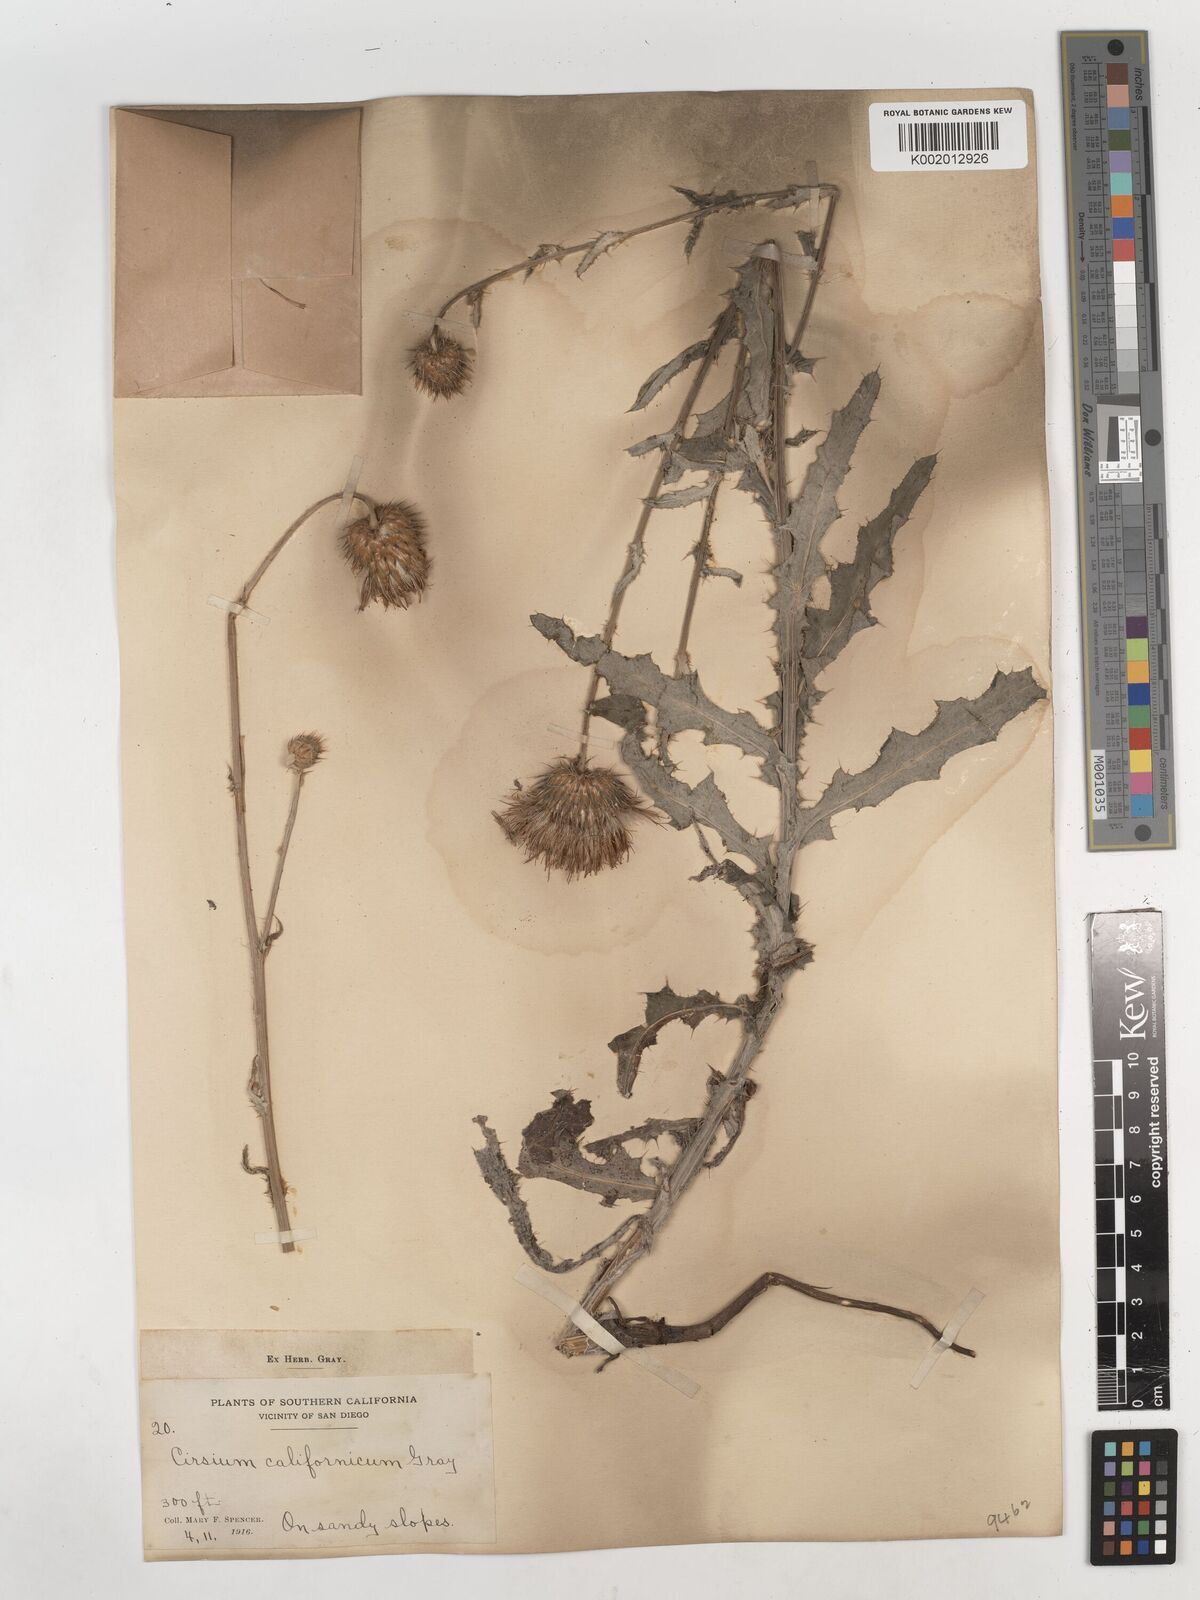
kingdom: Plantae
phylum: Tracheophyta
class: Magnoliopsida
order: Asterales
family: Asteraceae
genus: Cirsium
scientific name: Cirsium occidentale
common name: Western thistle
